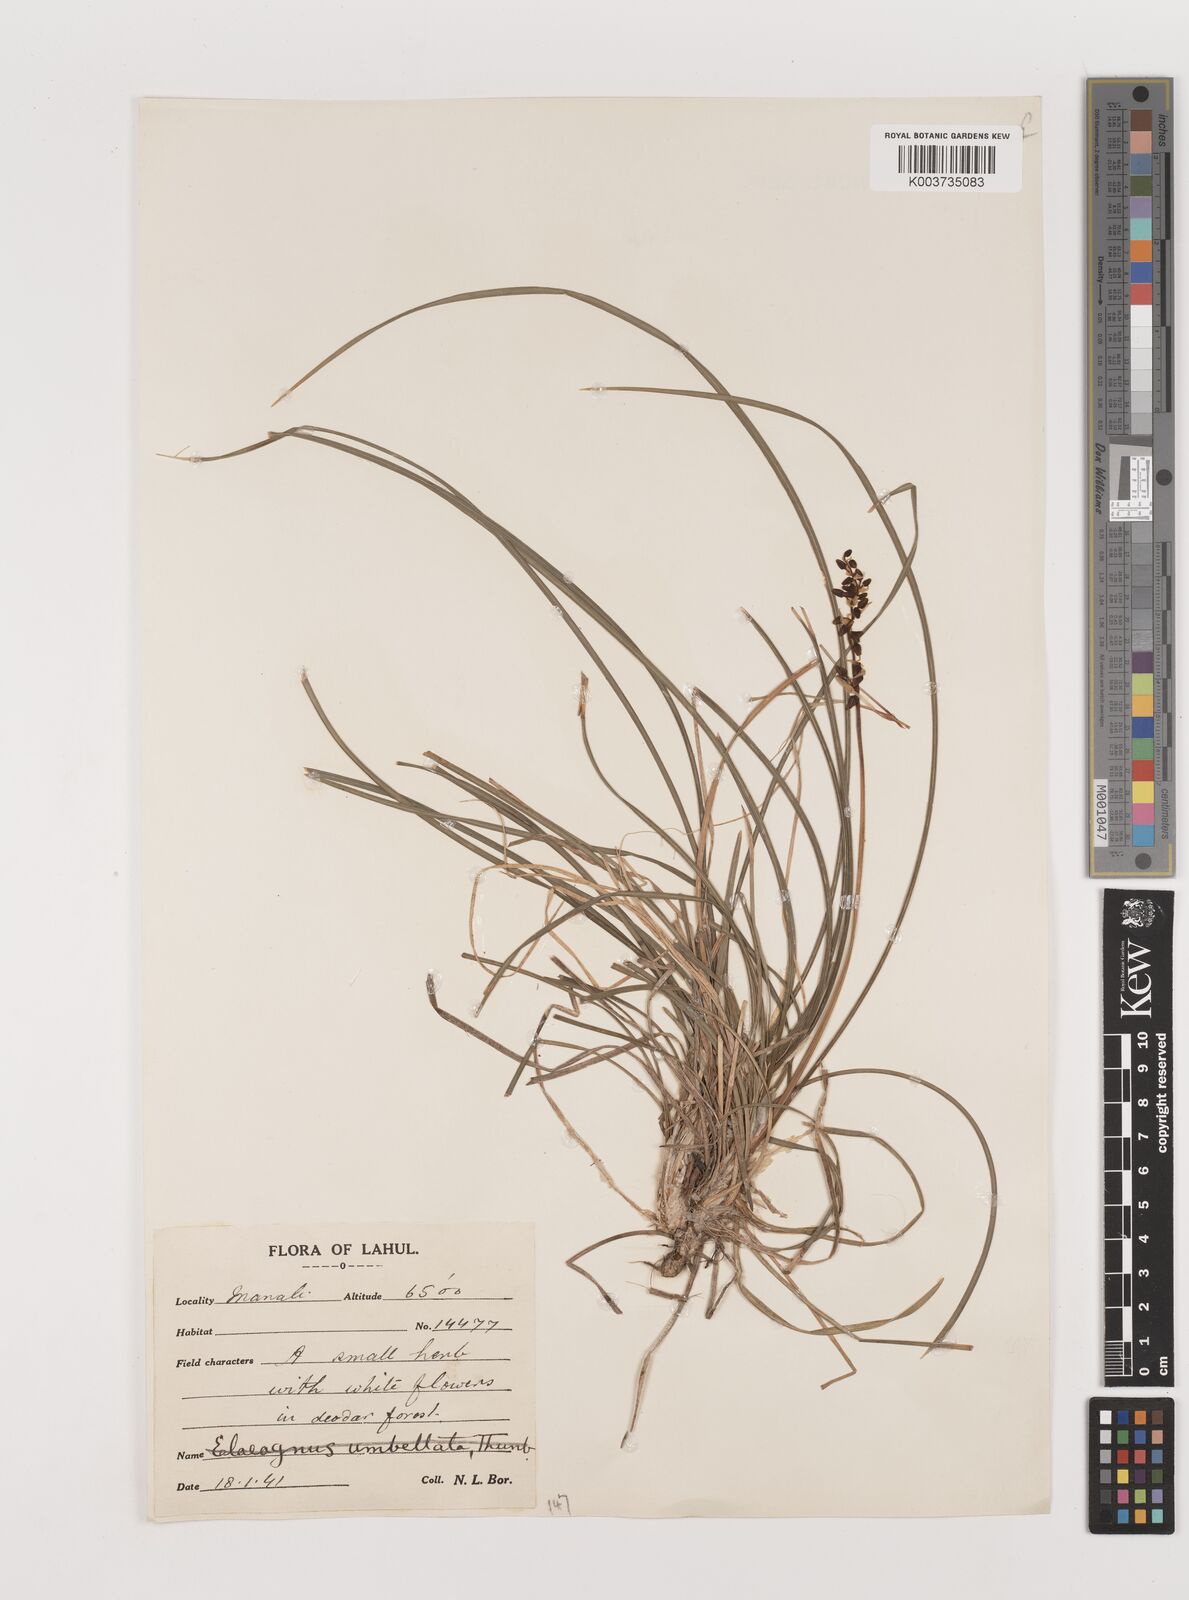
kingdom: Plantae
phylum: Tracheophyta
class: Liliopsida
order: Asparagales
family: Asparagaceae
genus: Ophiopogon
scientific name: Ophiopogon
